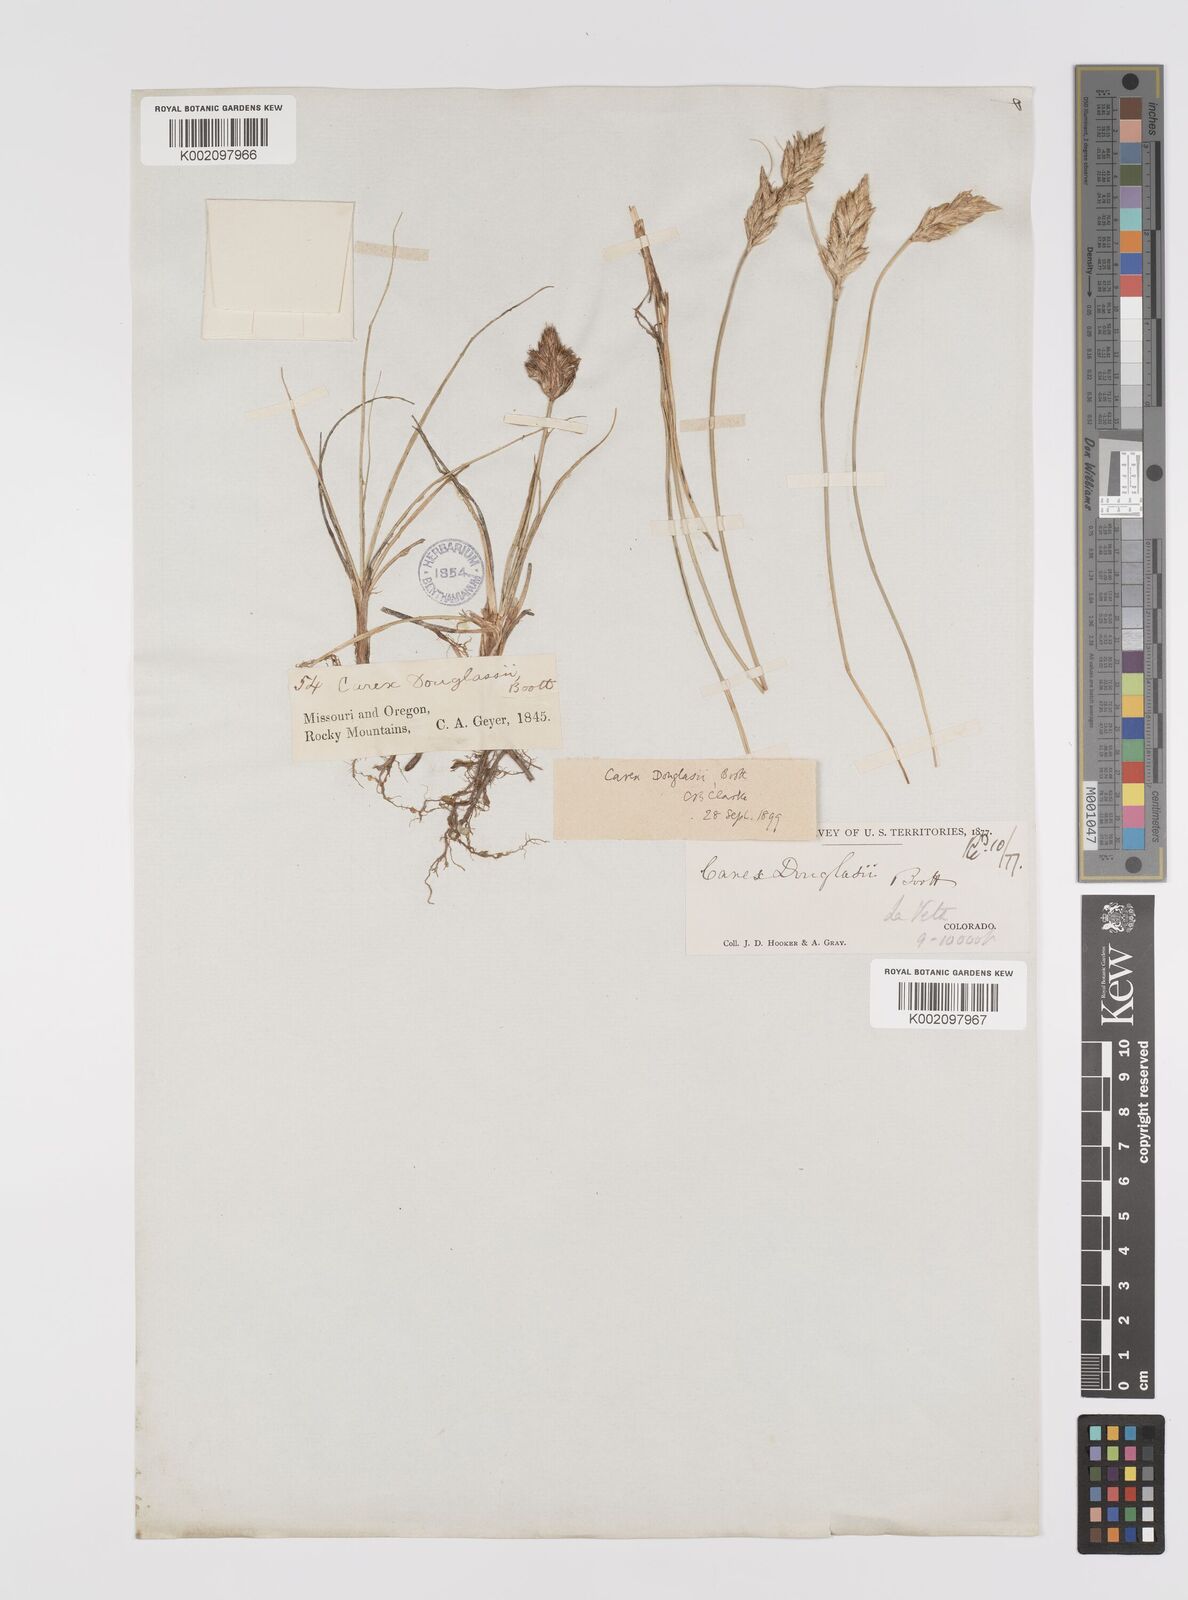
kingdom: Plantae
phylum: Tracheophyta
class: Liliopsida
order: Poales
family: Cyperaceae
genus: Carex
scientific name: Carex douglasii
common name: Douglas' sedge
